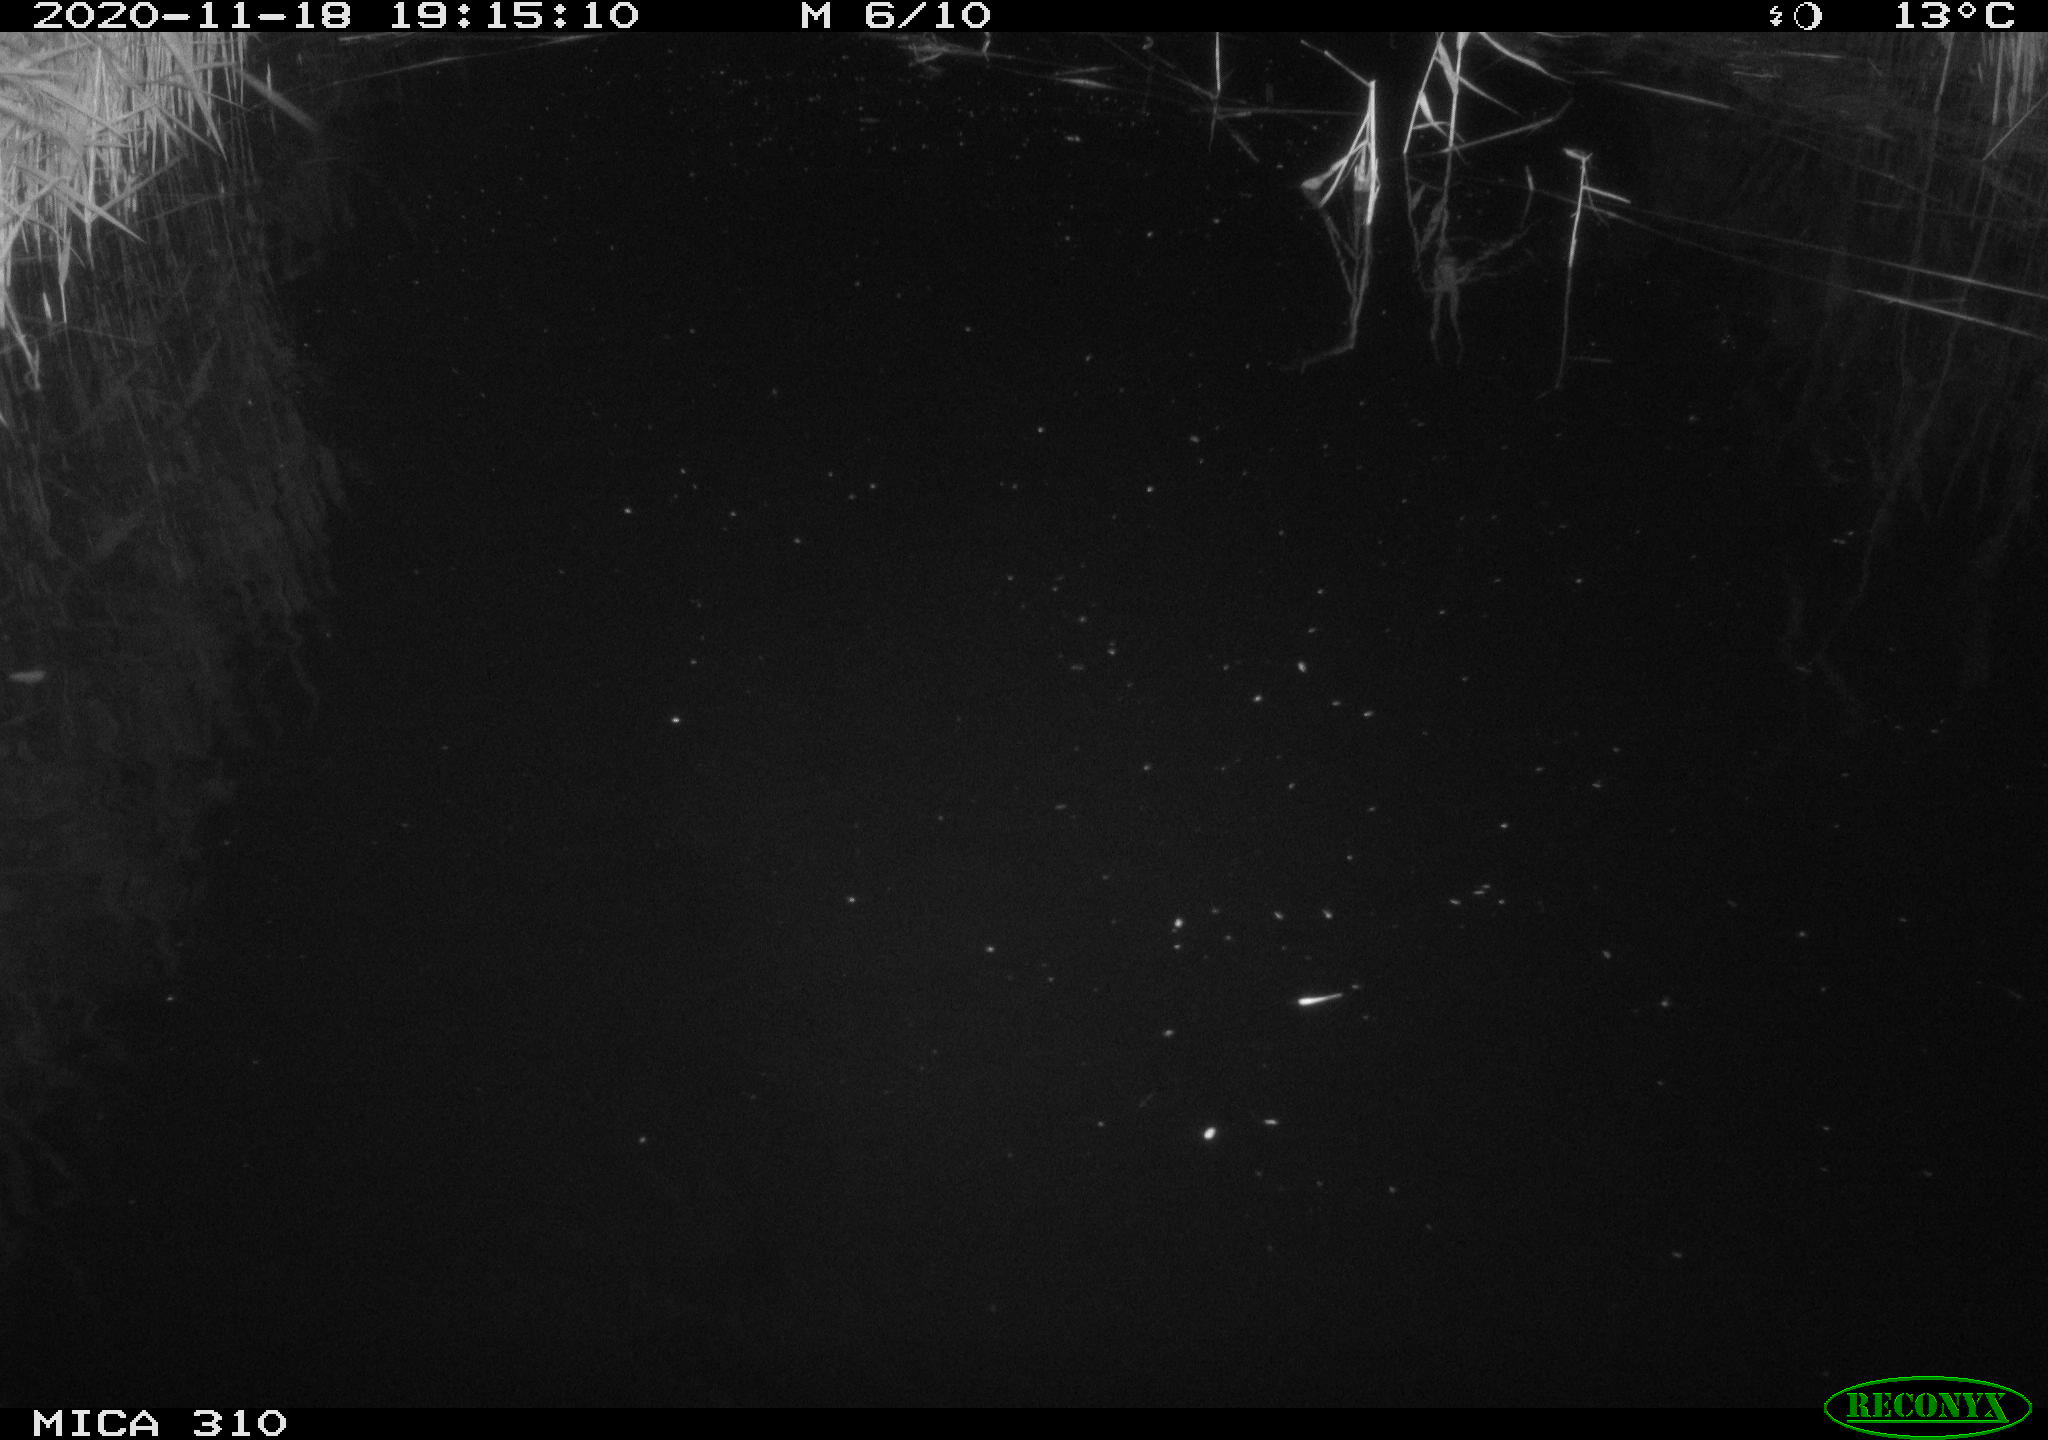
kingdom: Animalia
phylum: Chordata
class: Mammalia
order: Rodentia
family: Muridae
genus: Rattus
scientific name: Rattus norvegicus
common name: Brown rat
